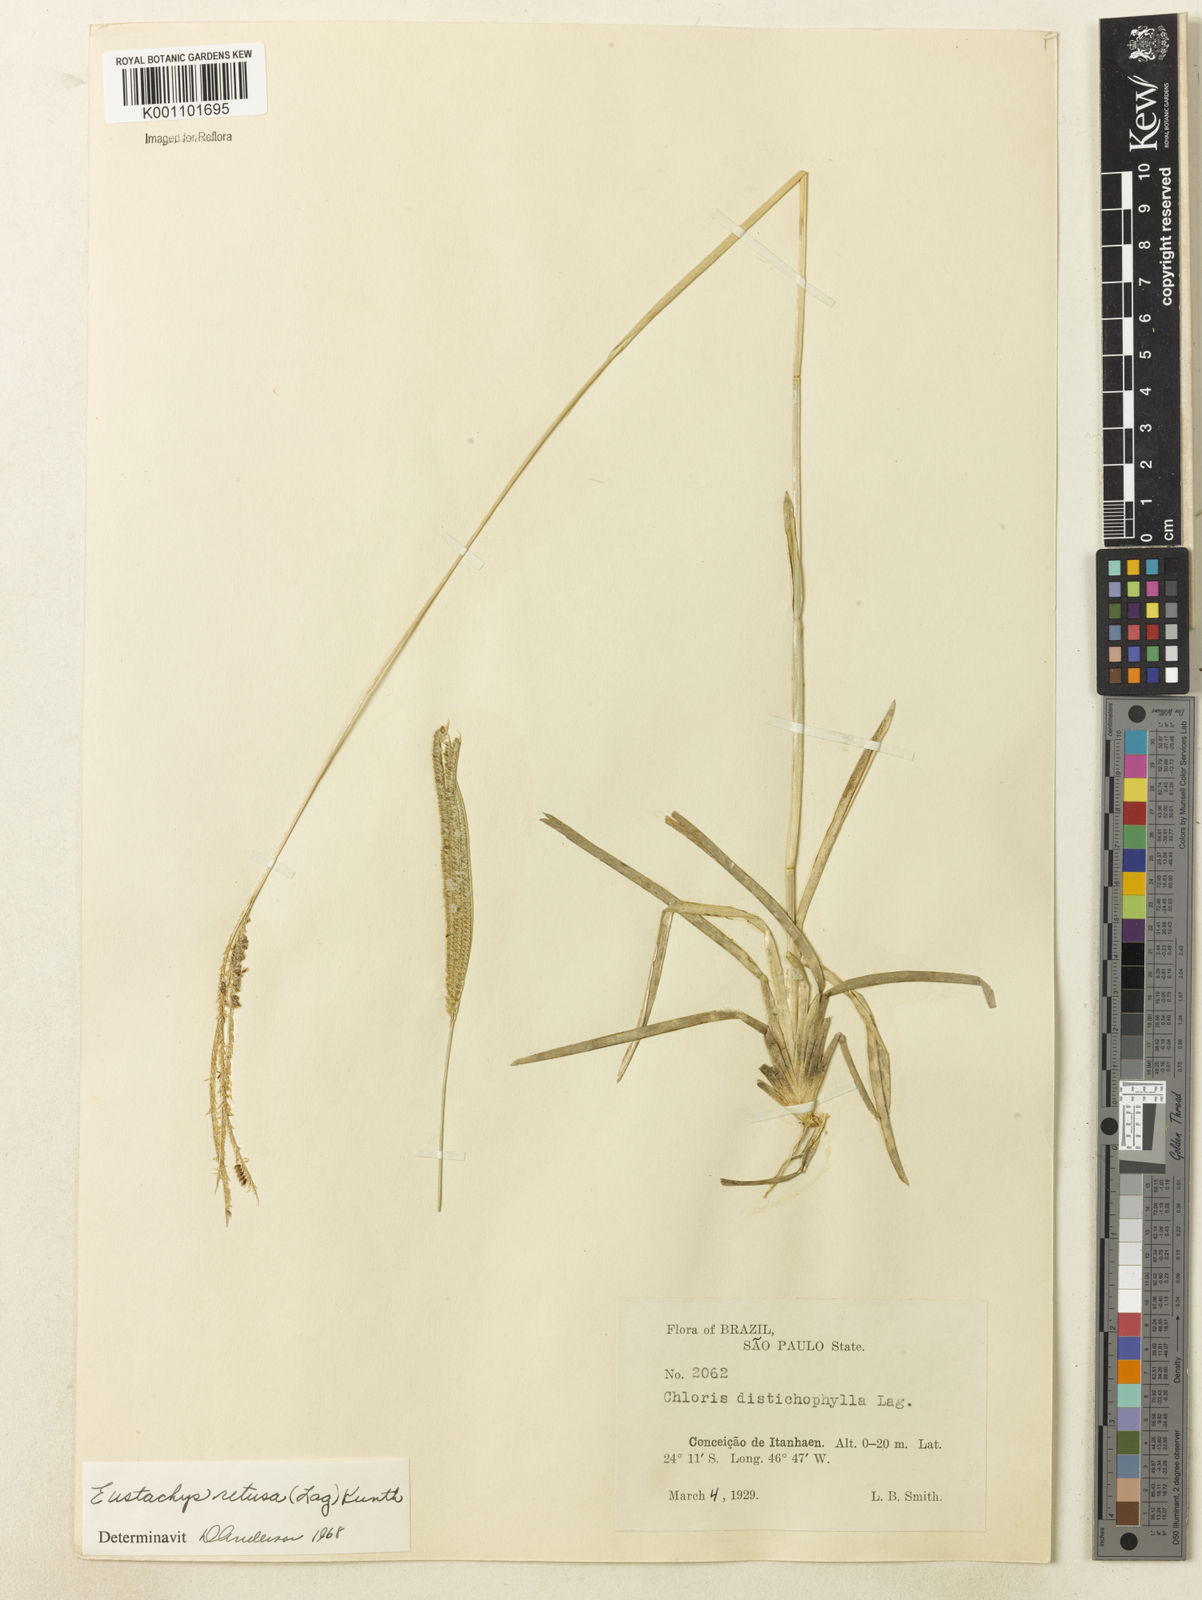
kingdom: Plantae
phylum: Tracheophyta
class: Liliopsida
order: Poales
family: Poaceae
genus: Eustachys
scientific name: Eustachys retusa
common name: Argentine fingergrass
